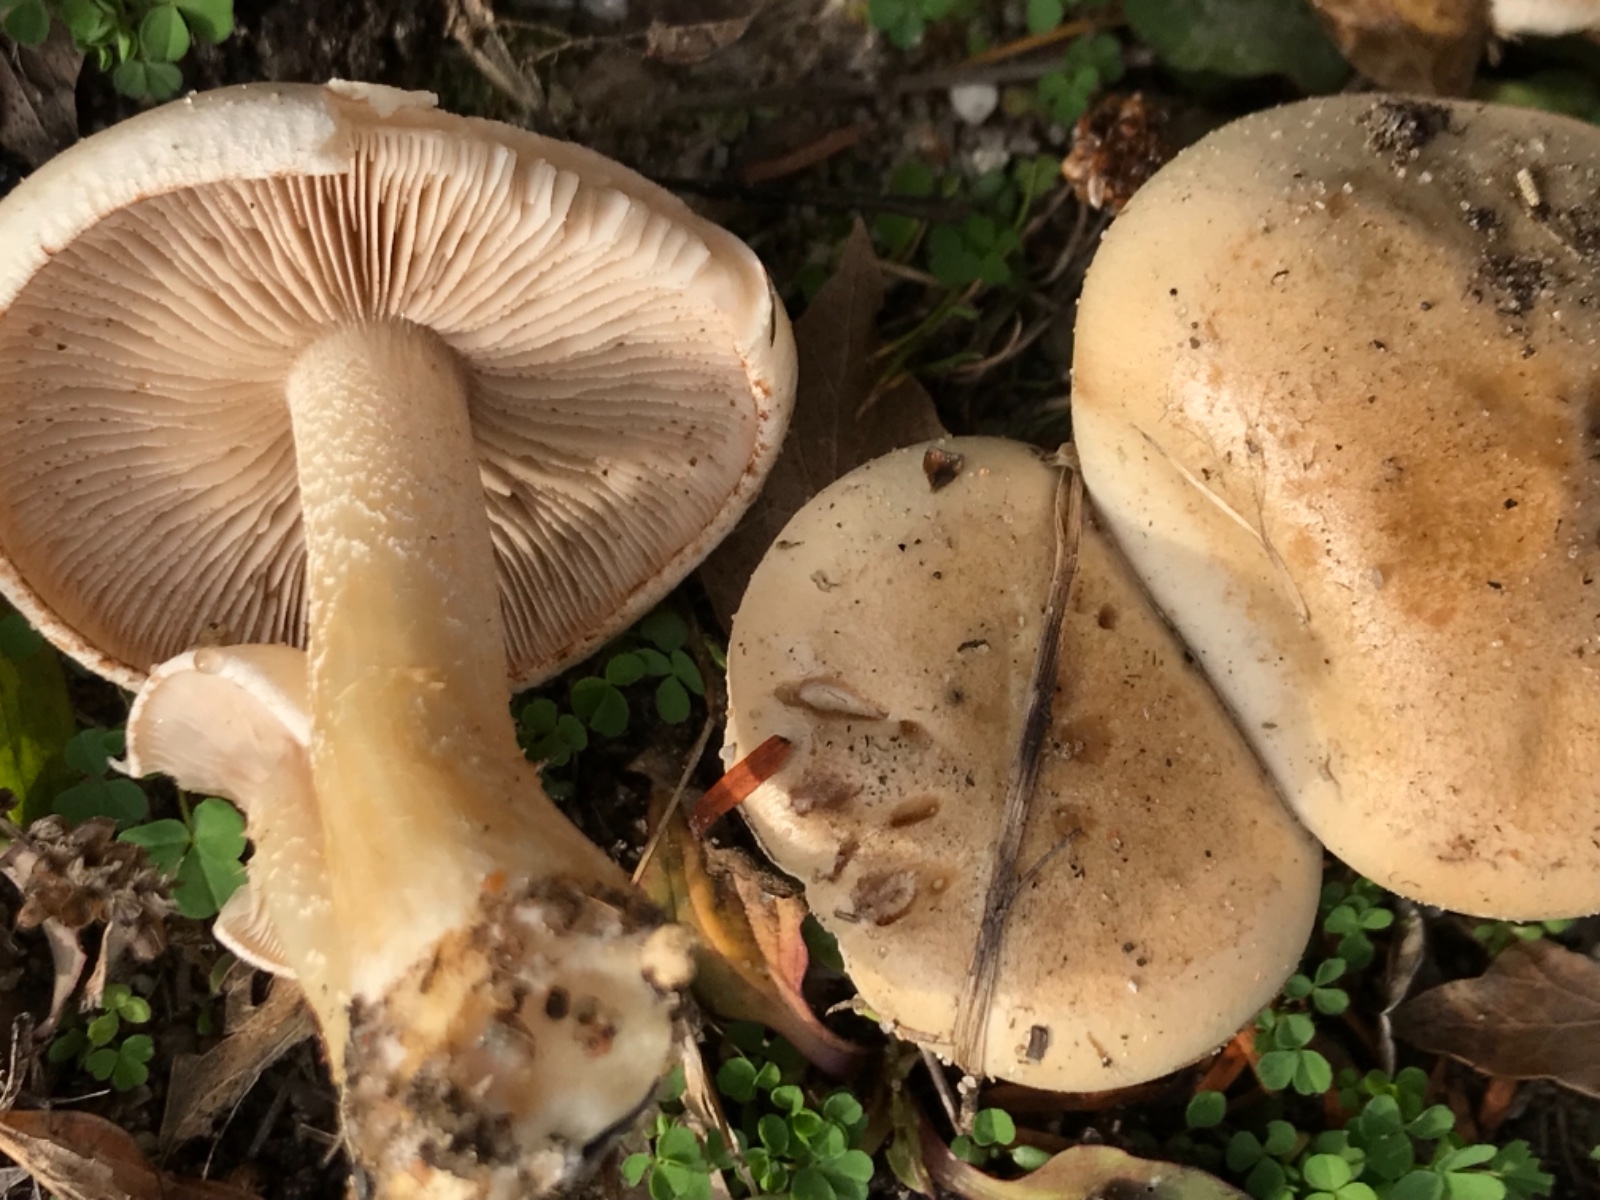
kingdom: Fungi
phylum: Basidiomycota
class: Agaricomycetes
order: Agaricales
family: Hymenogastraceae
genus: Hebeloma
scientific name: Hebeloma
